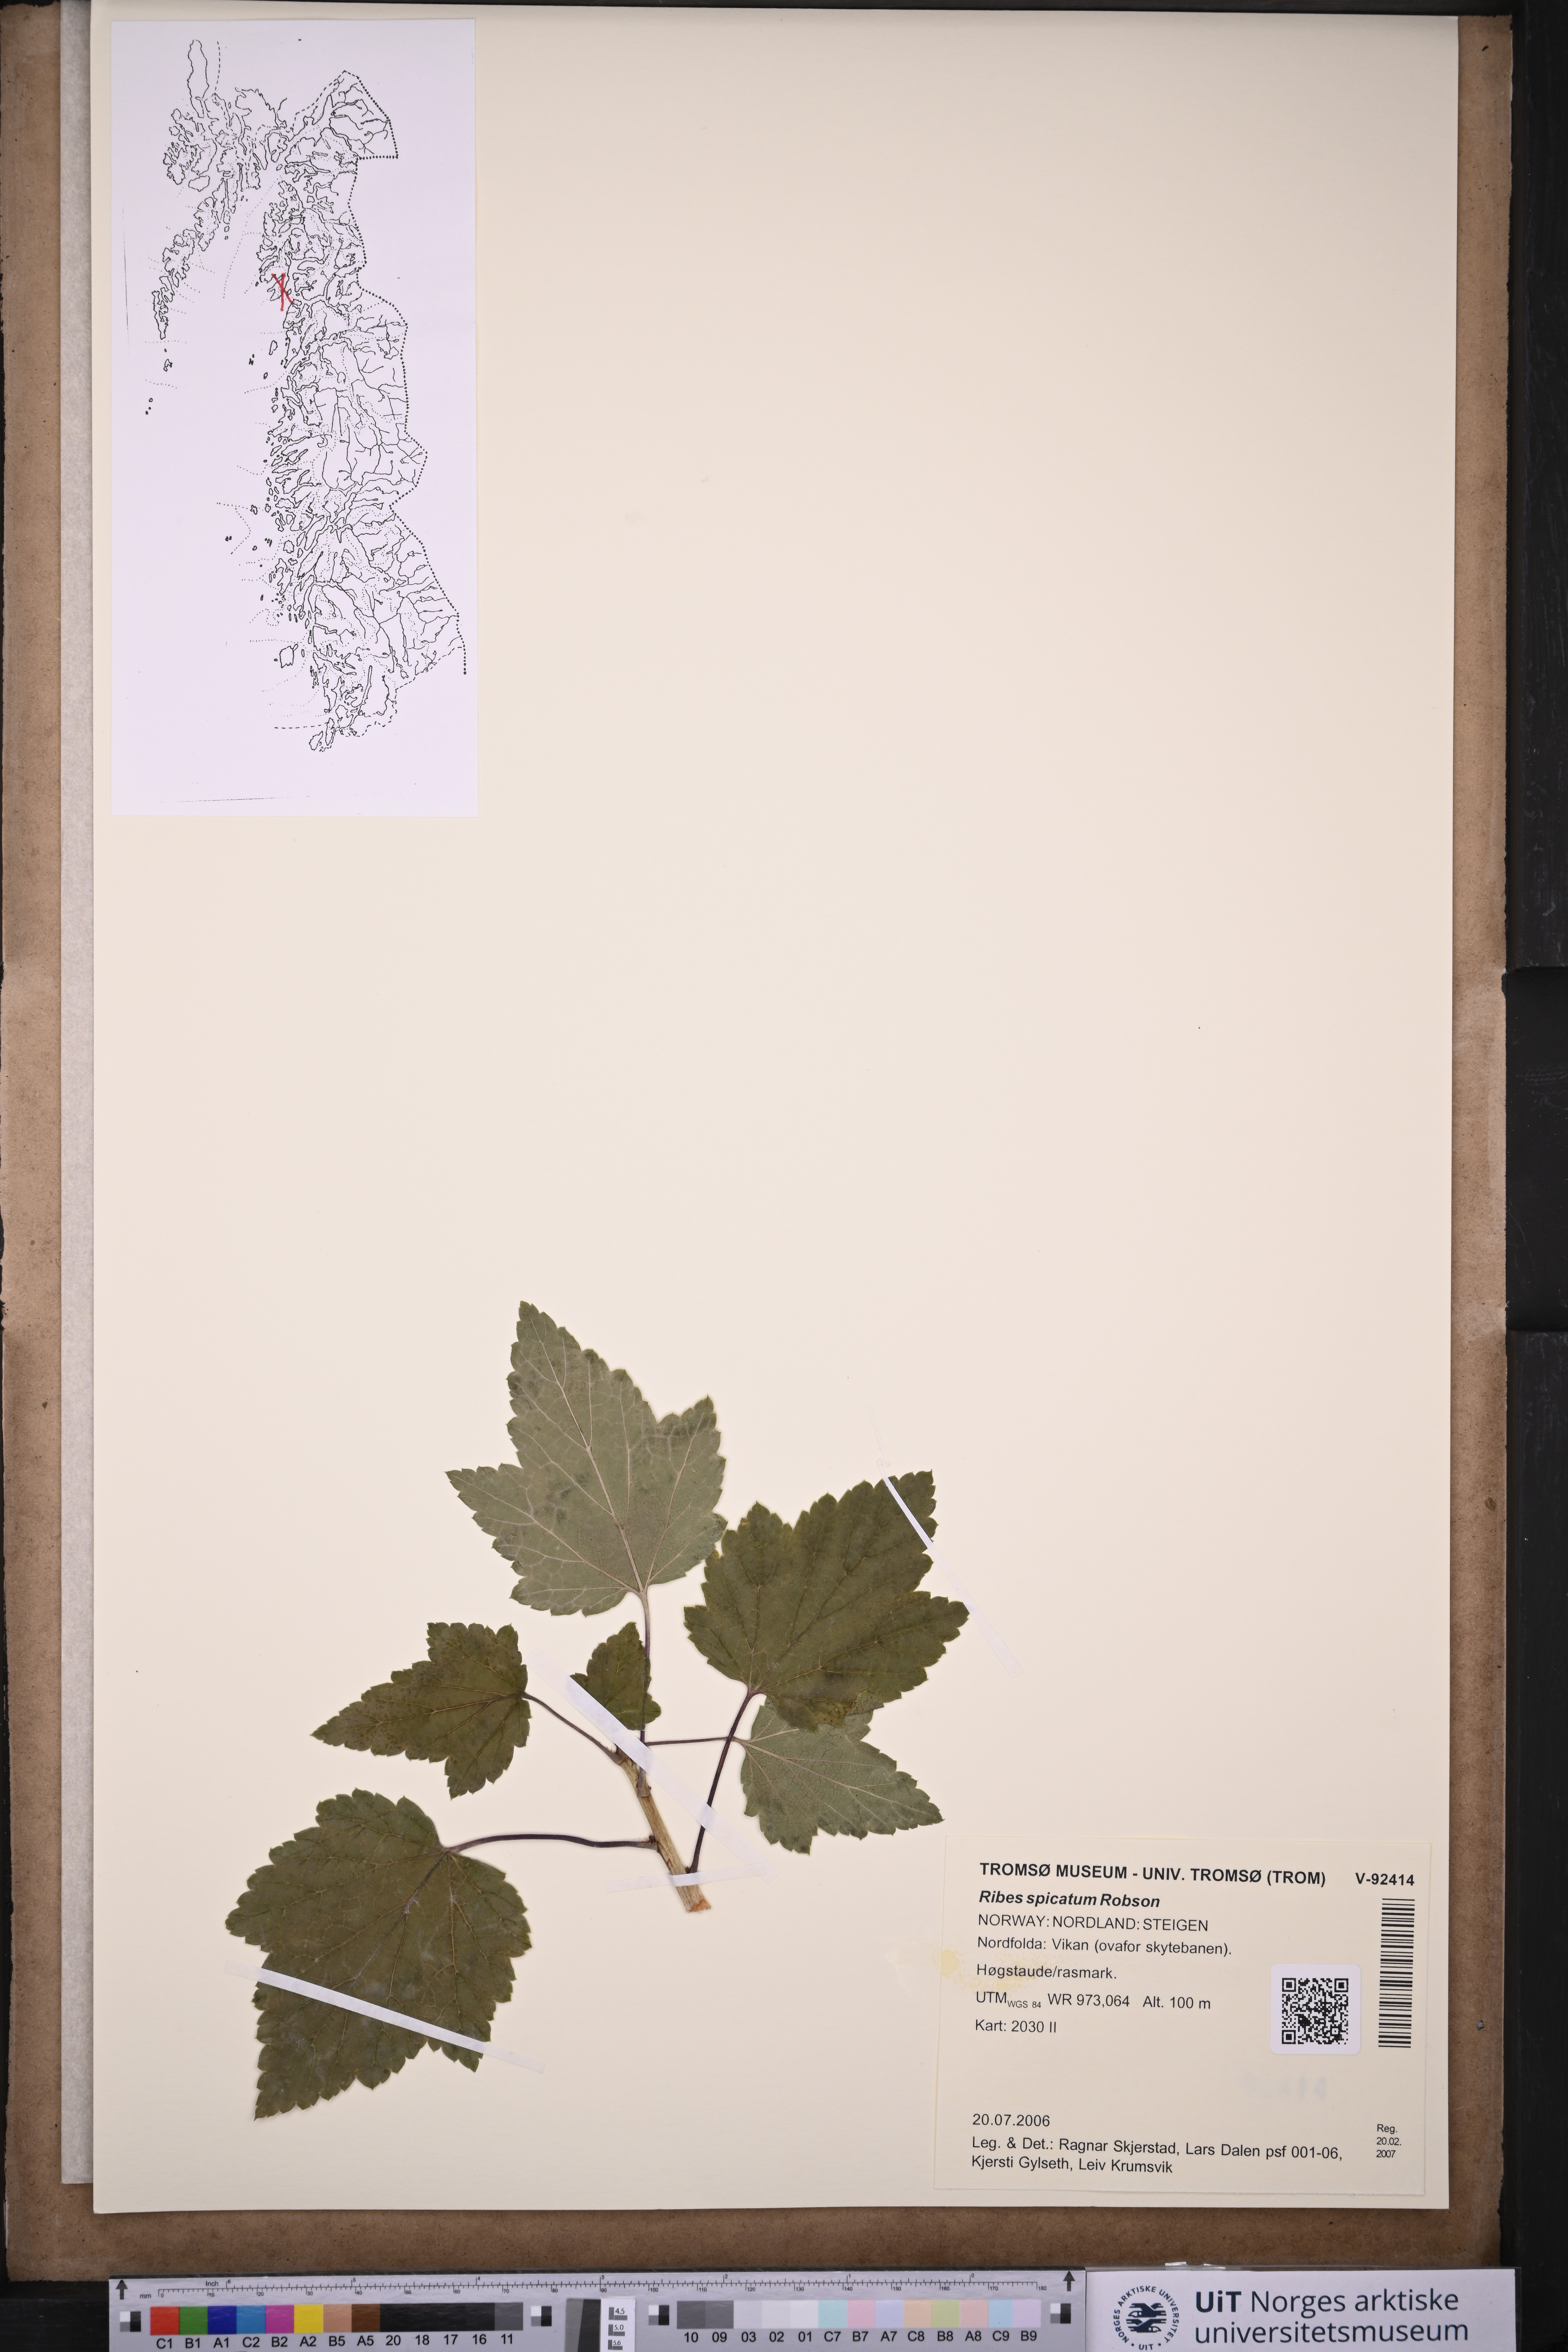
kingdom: Plantae
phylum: Tracheophyta
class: Magnoliopsida
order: Saxifragales
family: Grossulariaceae
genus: Ribes
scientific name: Ribes spicatum
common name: Downy currant
